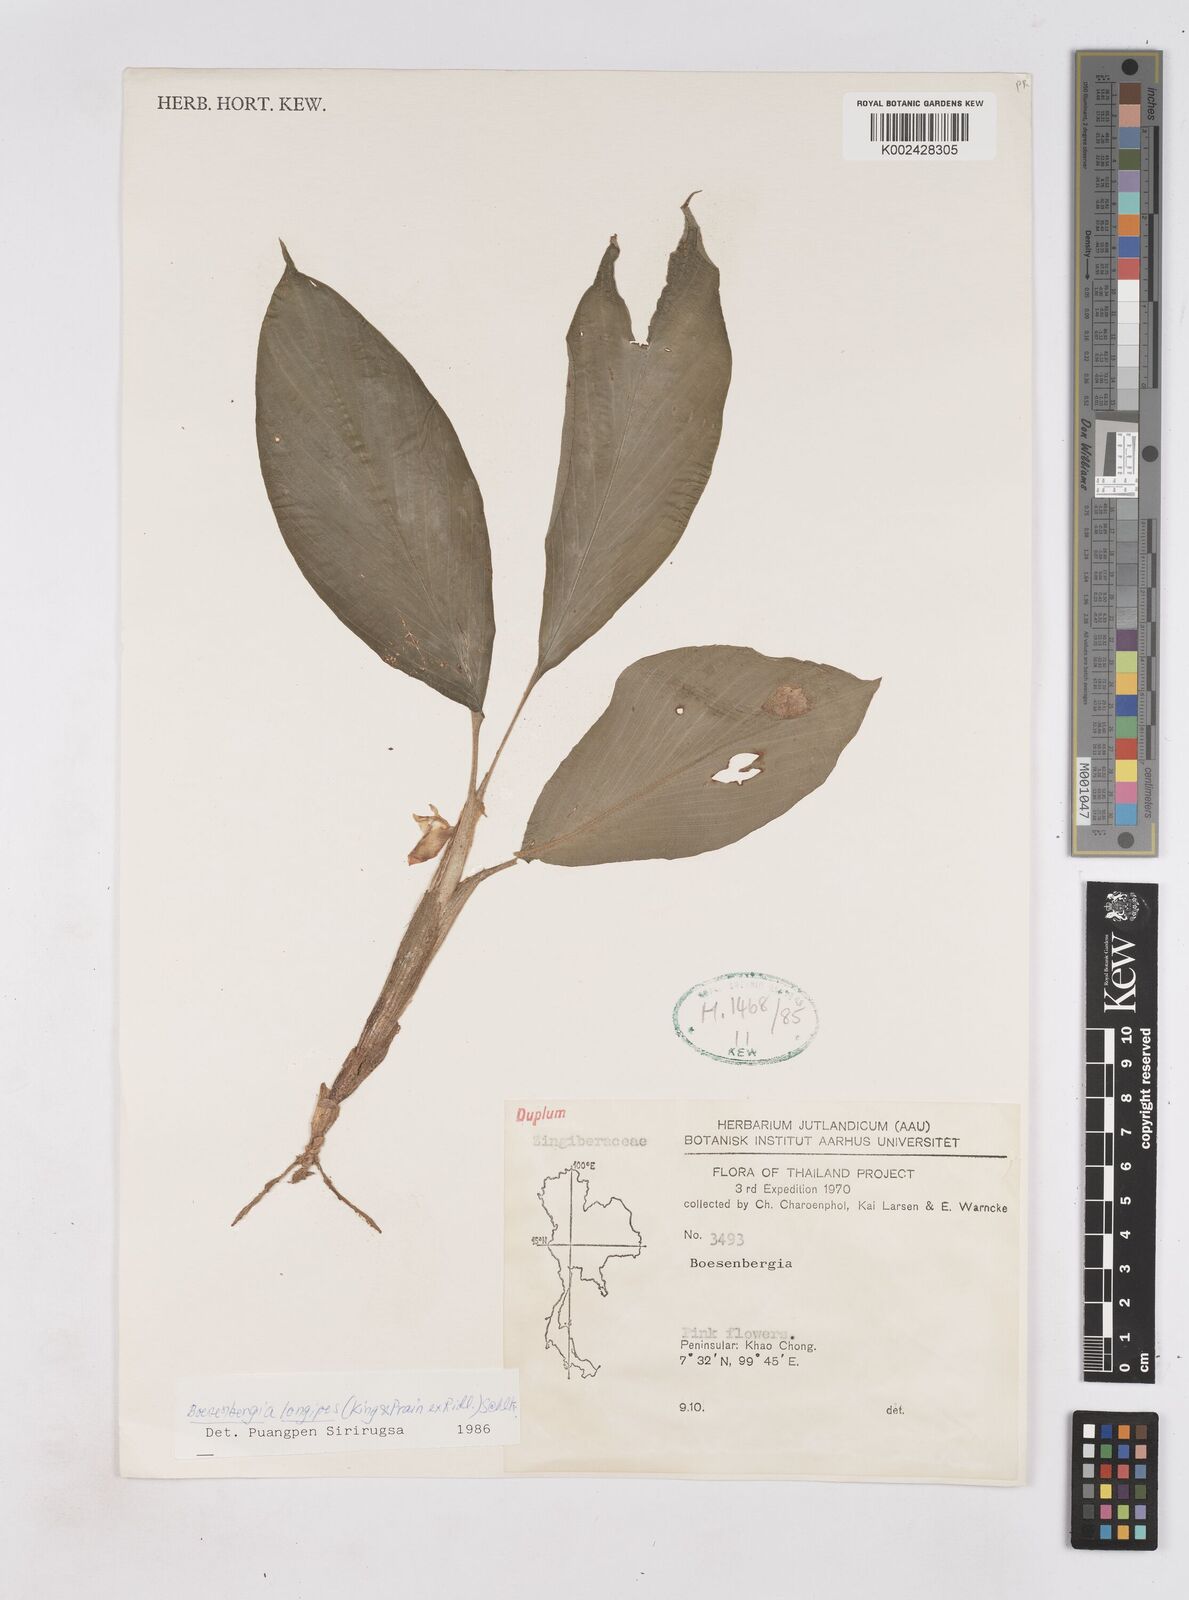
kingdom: Plantae
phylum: Tracheophyta
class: Liliopsida
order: Zingiberales
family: Zingiberaceae
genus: Boesenbergia
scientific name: Boesenbergia longipes
